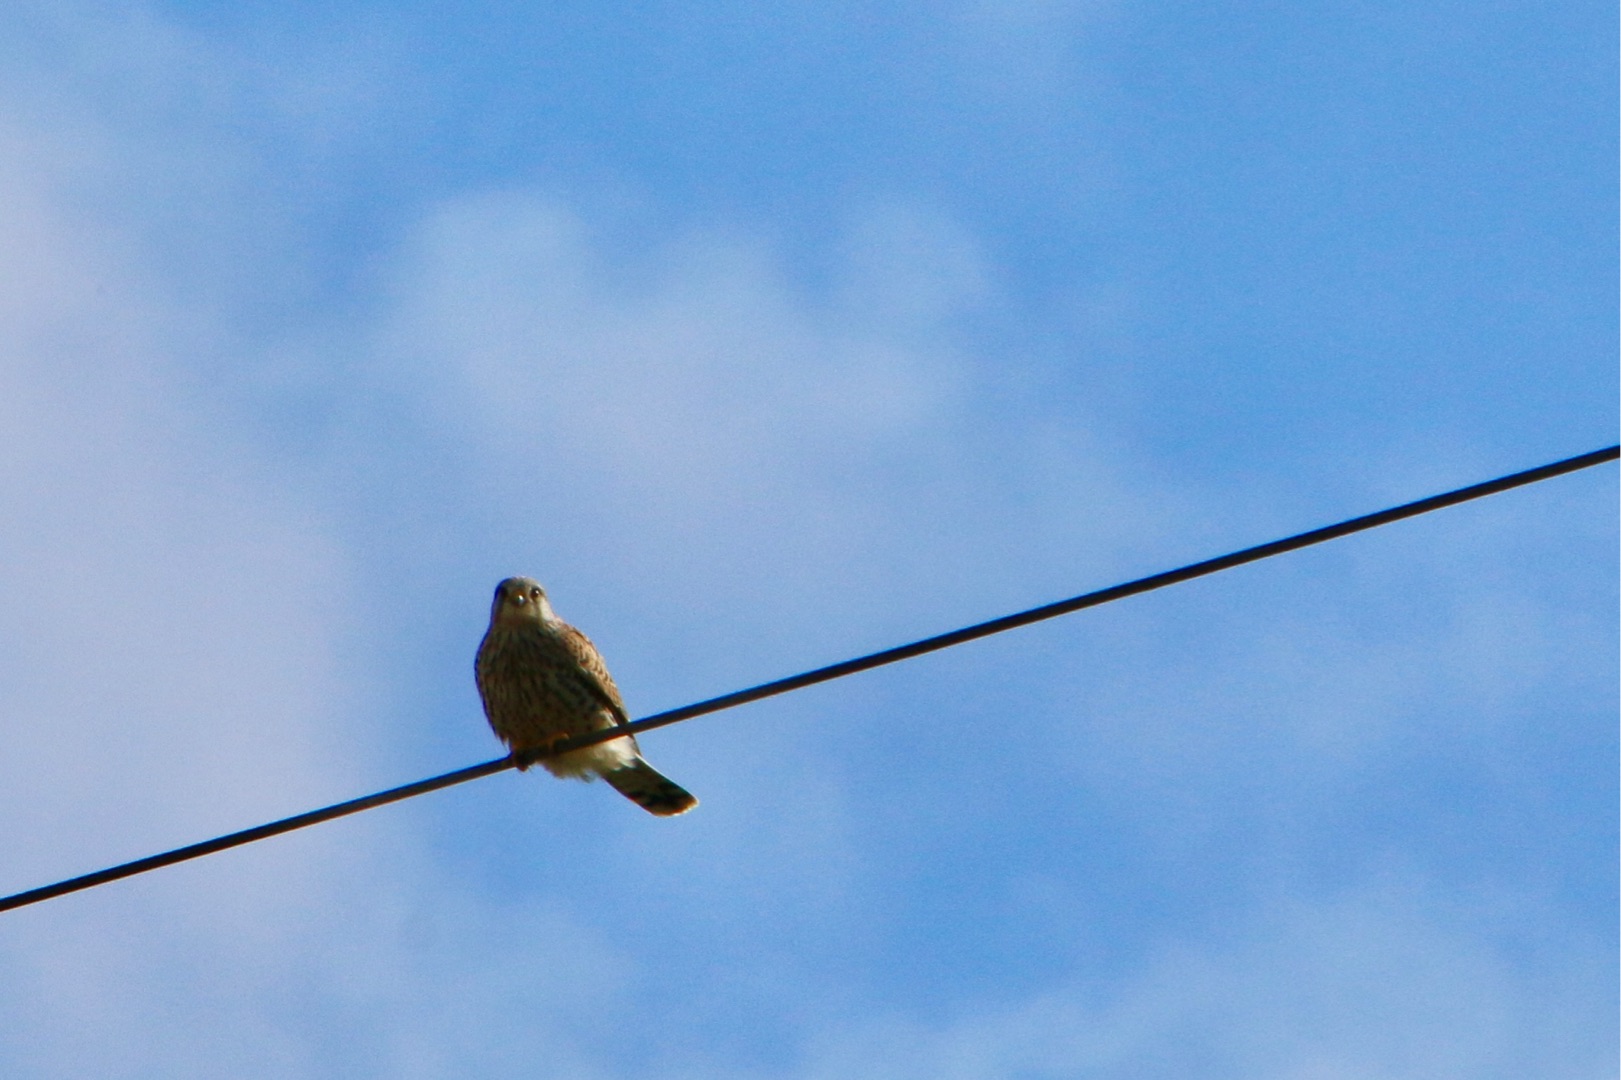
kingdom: Animalia
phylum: Chordata
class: Aves
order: Falconiformes
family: Falconidae
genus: Falco
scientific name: Falco tinnunculus
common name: Tårnfalk
